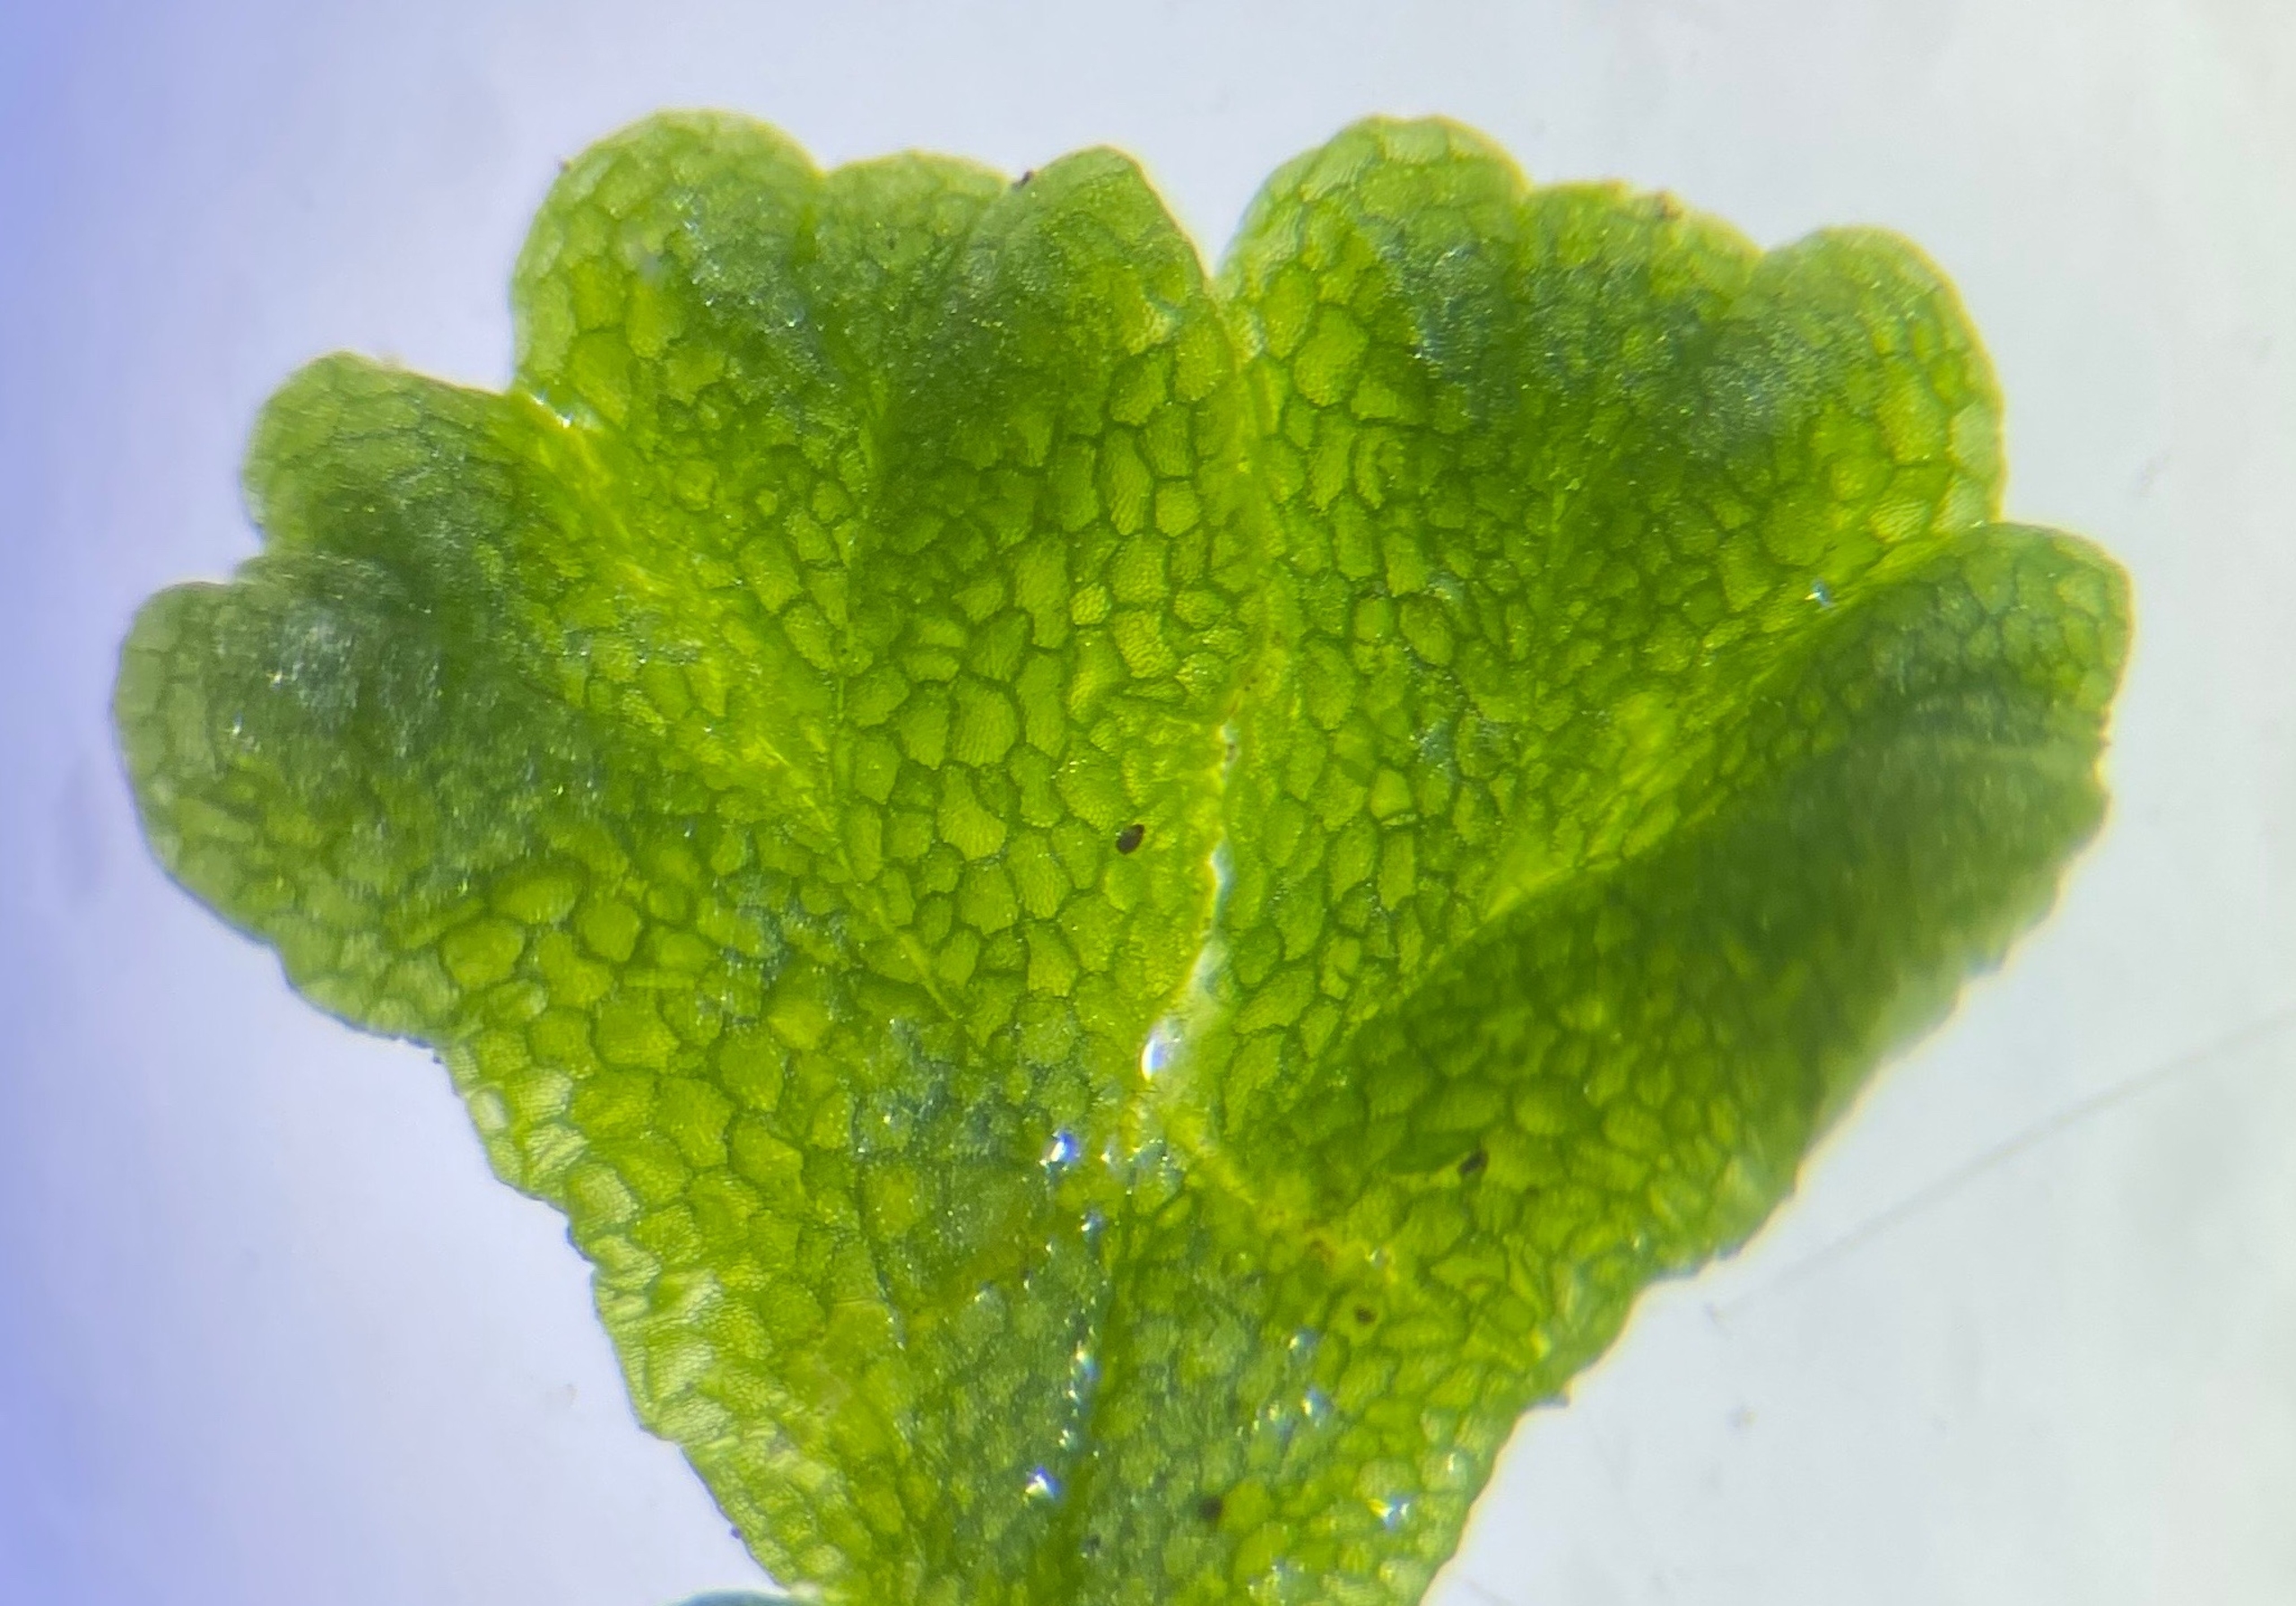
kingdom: Plantae
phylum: Marchantiophyta
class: Marchantiopsida
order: Marchantiales
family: Ricciaceae
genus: Ricciocarpos
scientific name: Ricciocarpos natans
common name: Flydende skælløv
